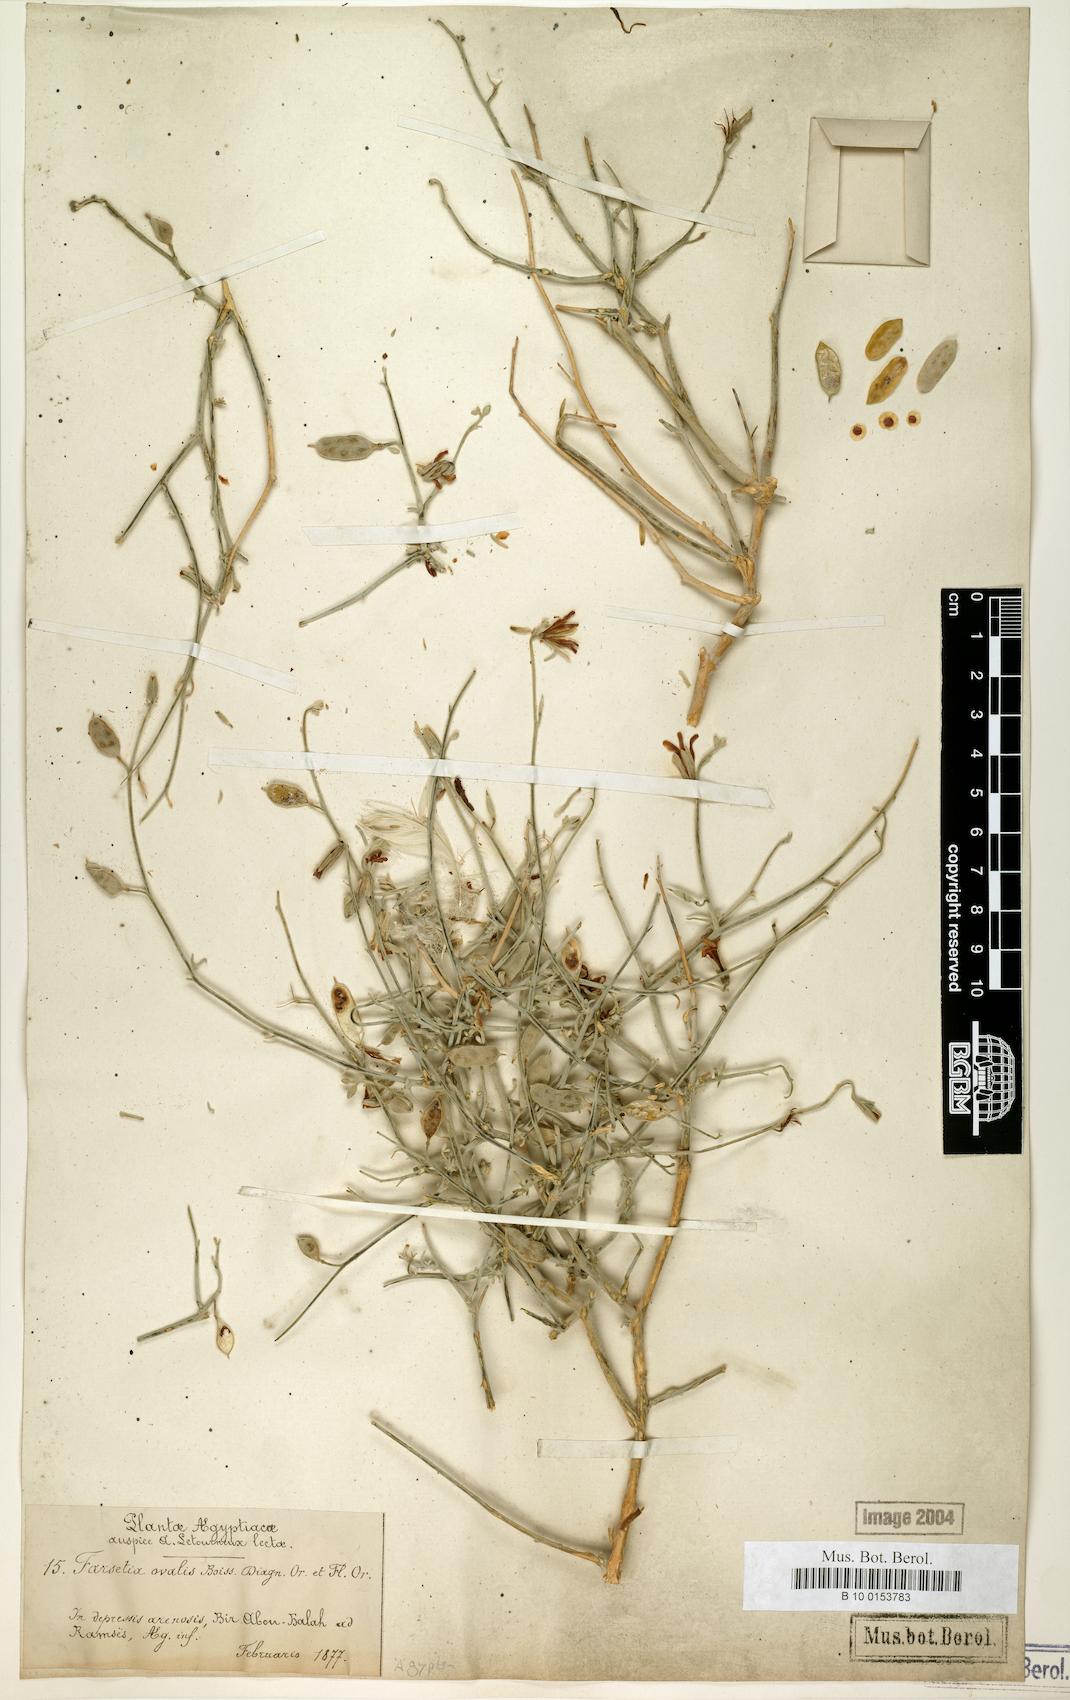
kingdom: Plantae
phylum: Tracheophyta
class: Magnoliopsida
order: Brassicales
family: Brassicaceae
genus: Farsetia
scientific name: Farsetia aegyptia
